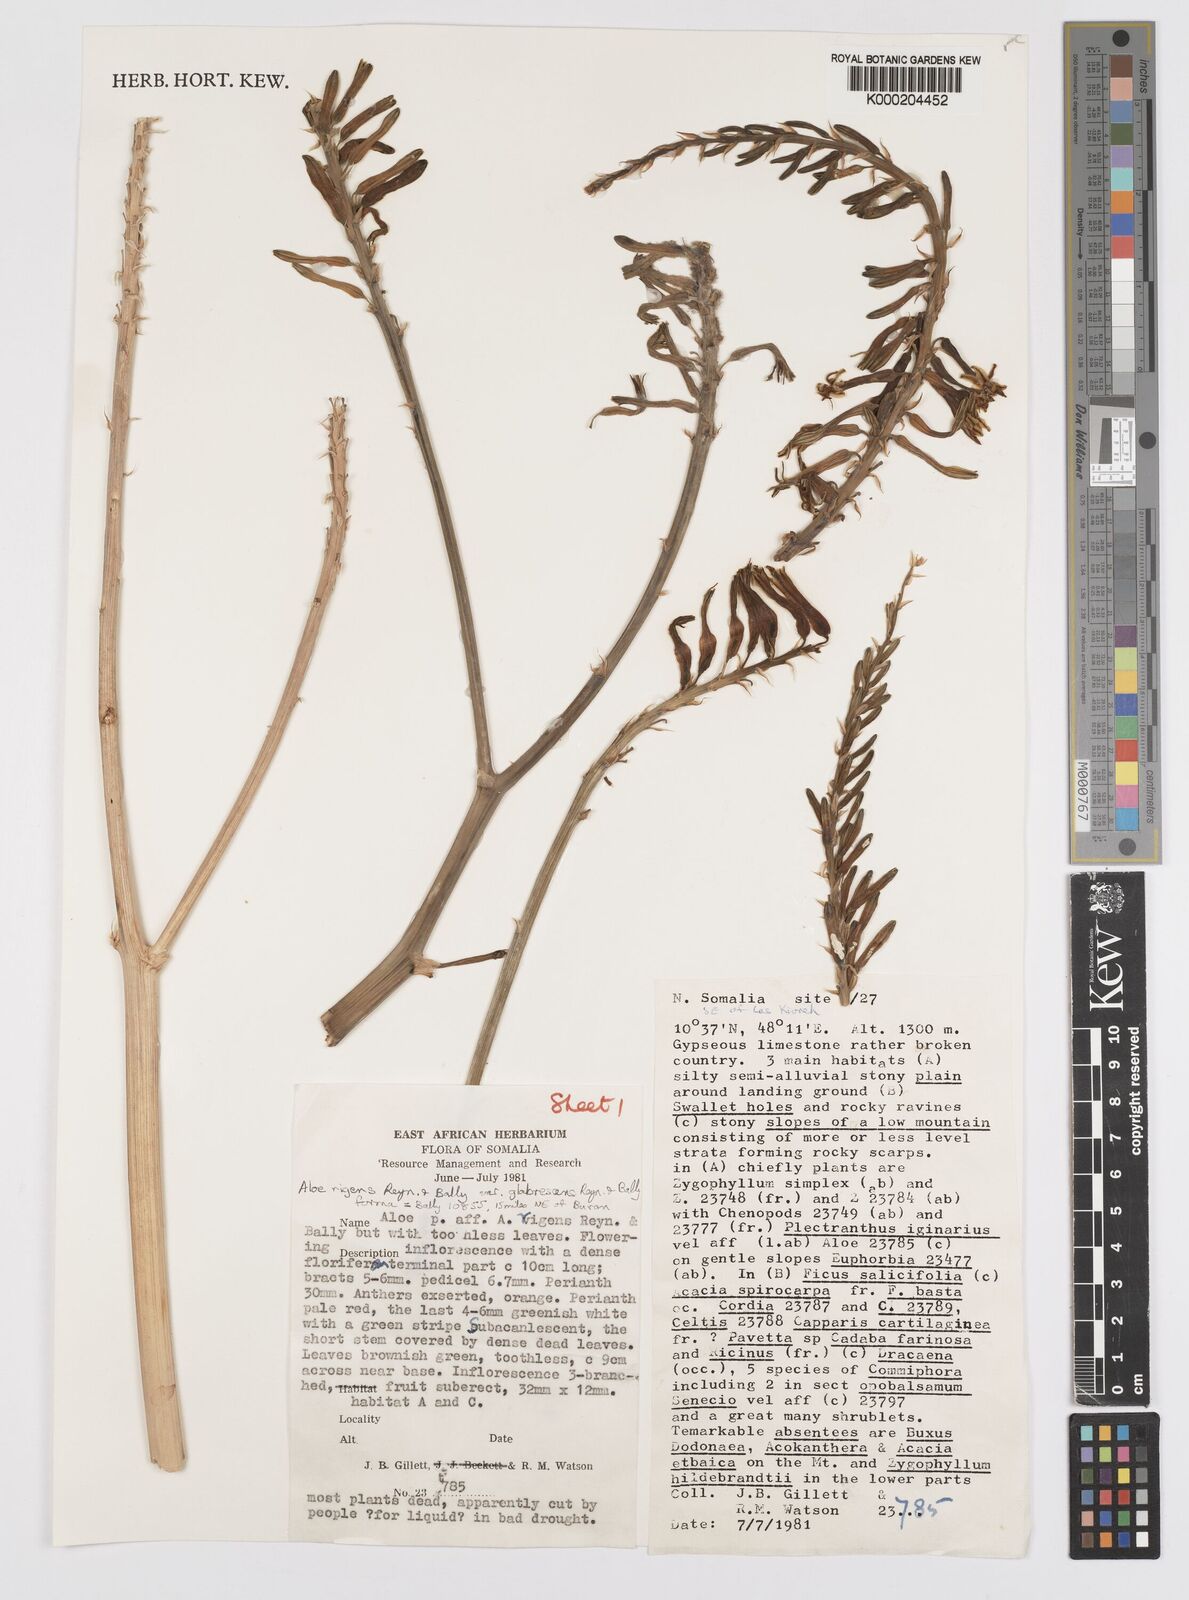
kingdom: Plantae
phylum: Tracheophyta
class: Liliopsida
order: Asparagales
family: Asphodelaceae
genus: Aloe
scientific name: Aloe glabrescens
